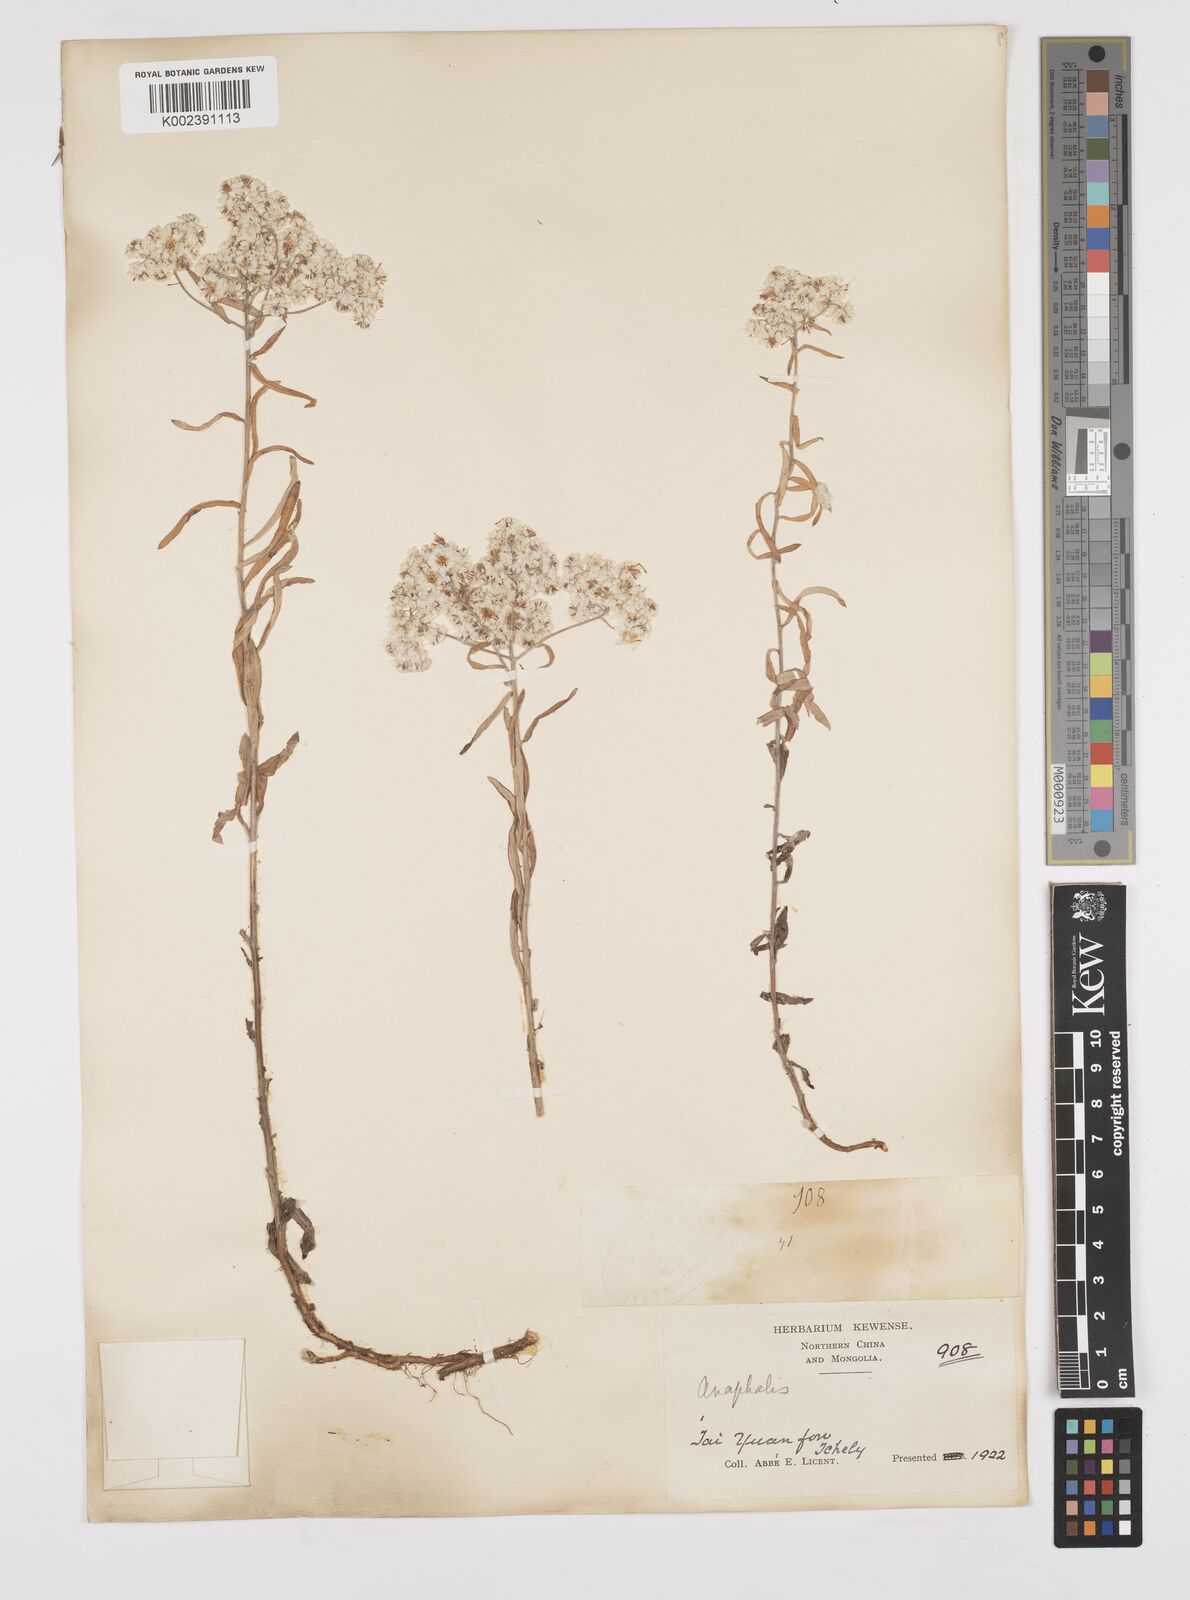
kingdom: Plantae
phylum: Tracheophyta
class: Magnoliopsida
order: Asterales
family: Asteraceae
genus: Anaphalis
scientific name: Anaphalis margaritacea
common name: Pearly everlasting
